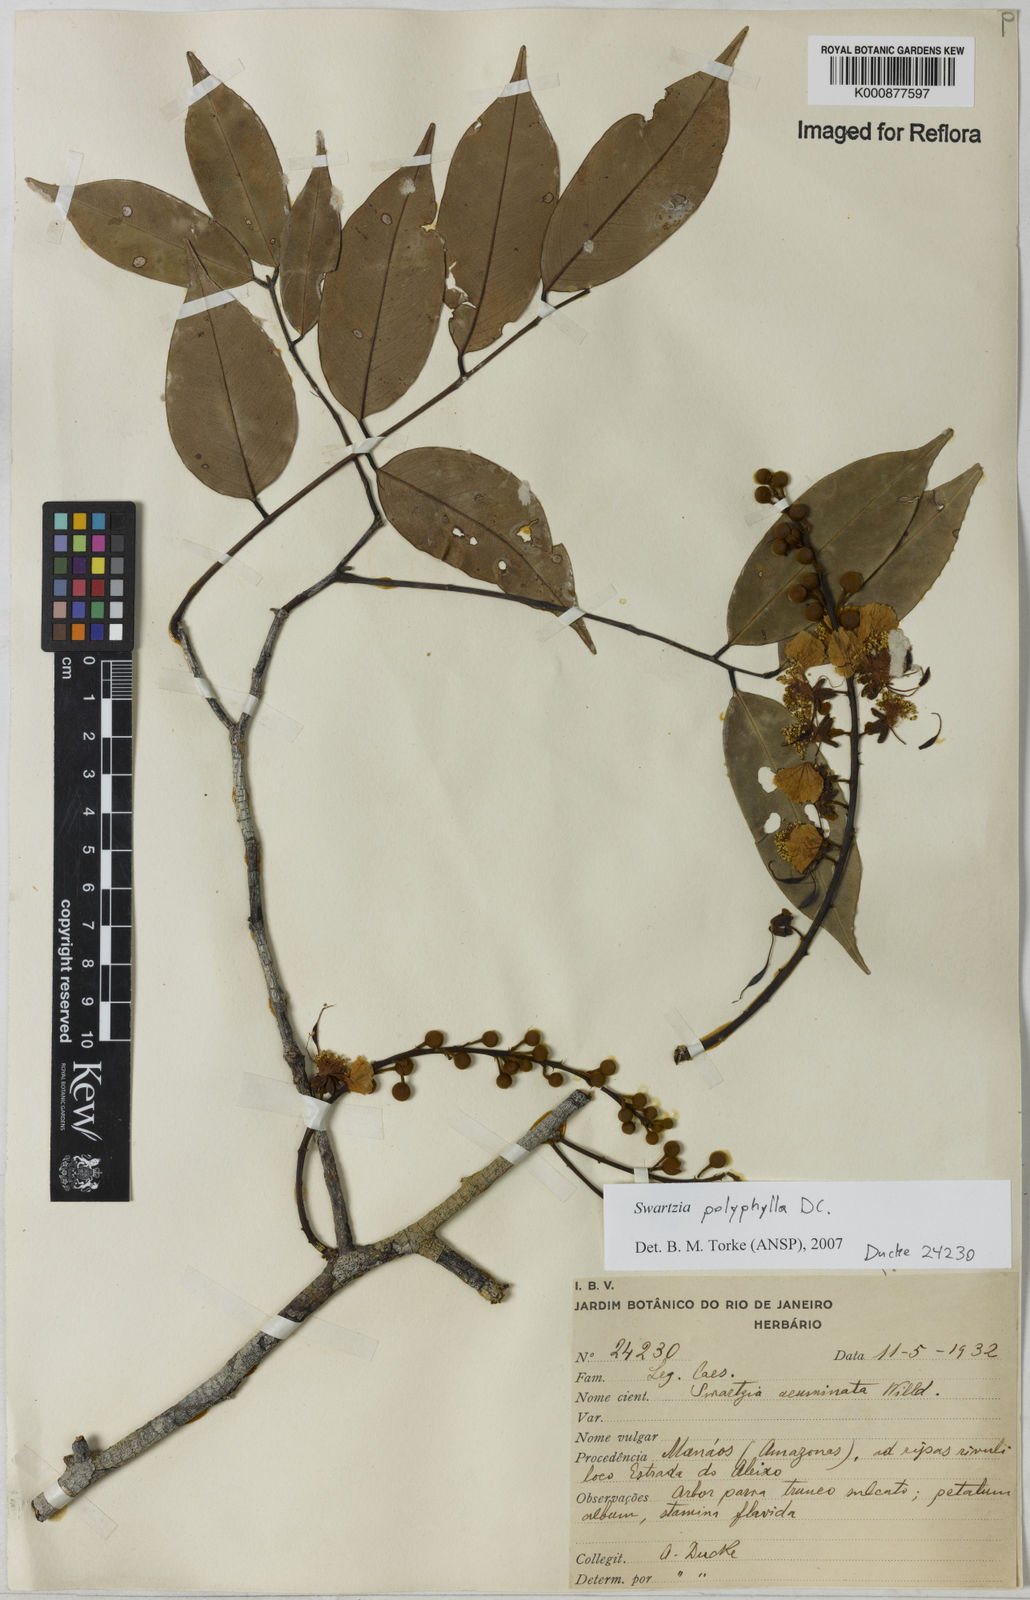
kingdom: Plantae
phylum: Tracheophyta
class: Magnoliopsida
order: Fabales
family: Fabaceae
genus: Swartzia
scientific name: Swartzia polyphylla
